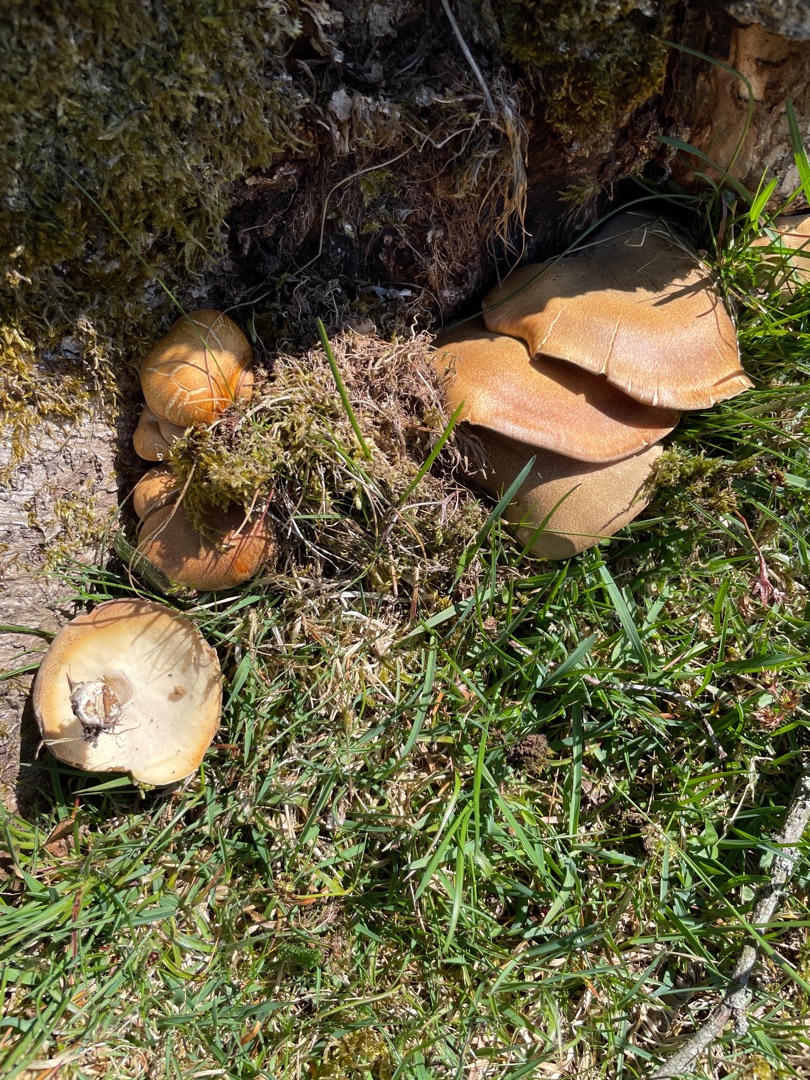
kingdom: Fungi
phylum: Basidiomycota
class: Agaricomycetes
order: Polyporales
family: Polyporaceae
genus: Lentinus
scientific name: Lentinus substrictus
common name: Forårs-stilkporesvamp
